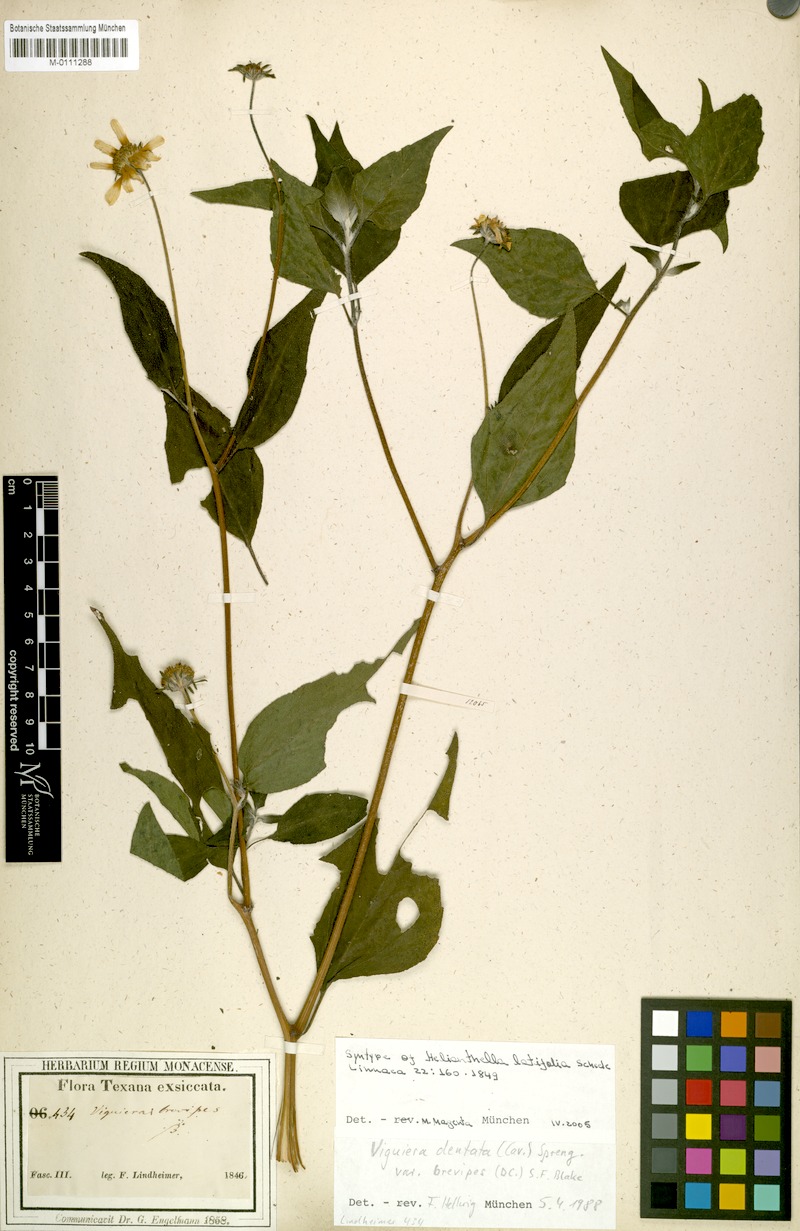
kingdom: Plantae
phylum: Tracheophyta
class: Magnoliopsida
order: Asterales
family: Asteraceae
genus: Viguiera
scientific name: Viguiera dentata
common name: Toothleaf
